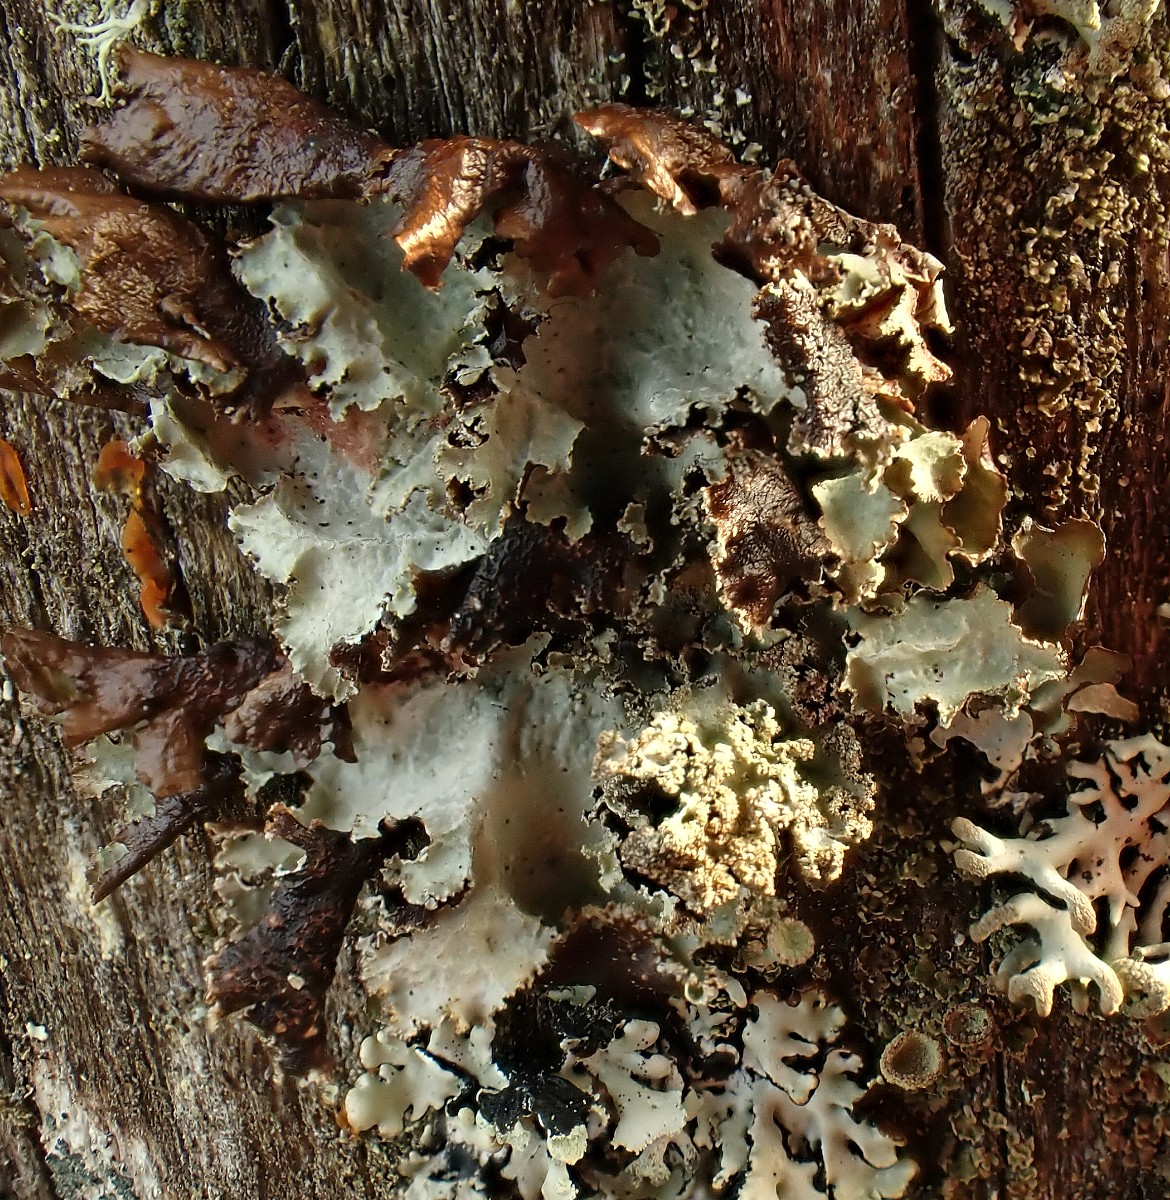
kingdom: Fungi
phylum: Ascomycota
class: Lecanoromycetes
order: Lecanorales
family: Parmeliaceae
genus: Platismatia
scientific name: Platismatia glauca
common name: blågrå papirlav
